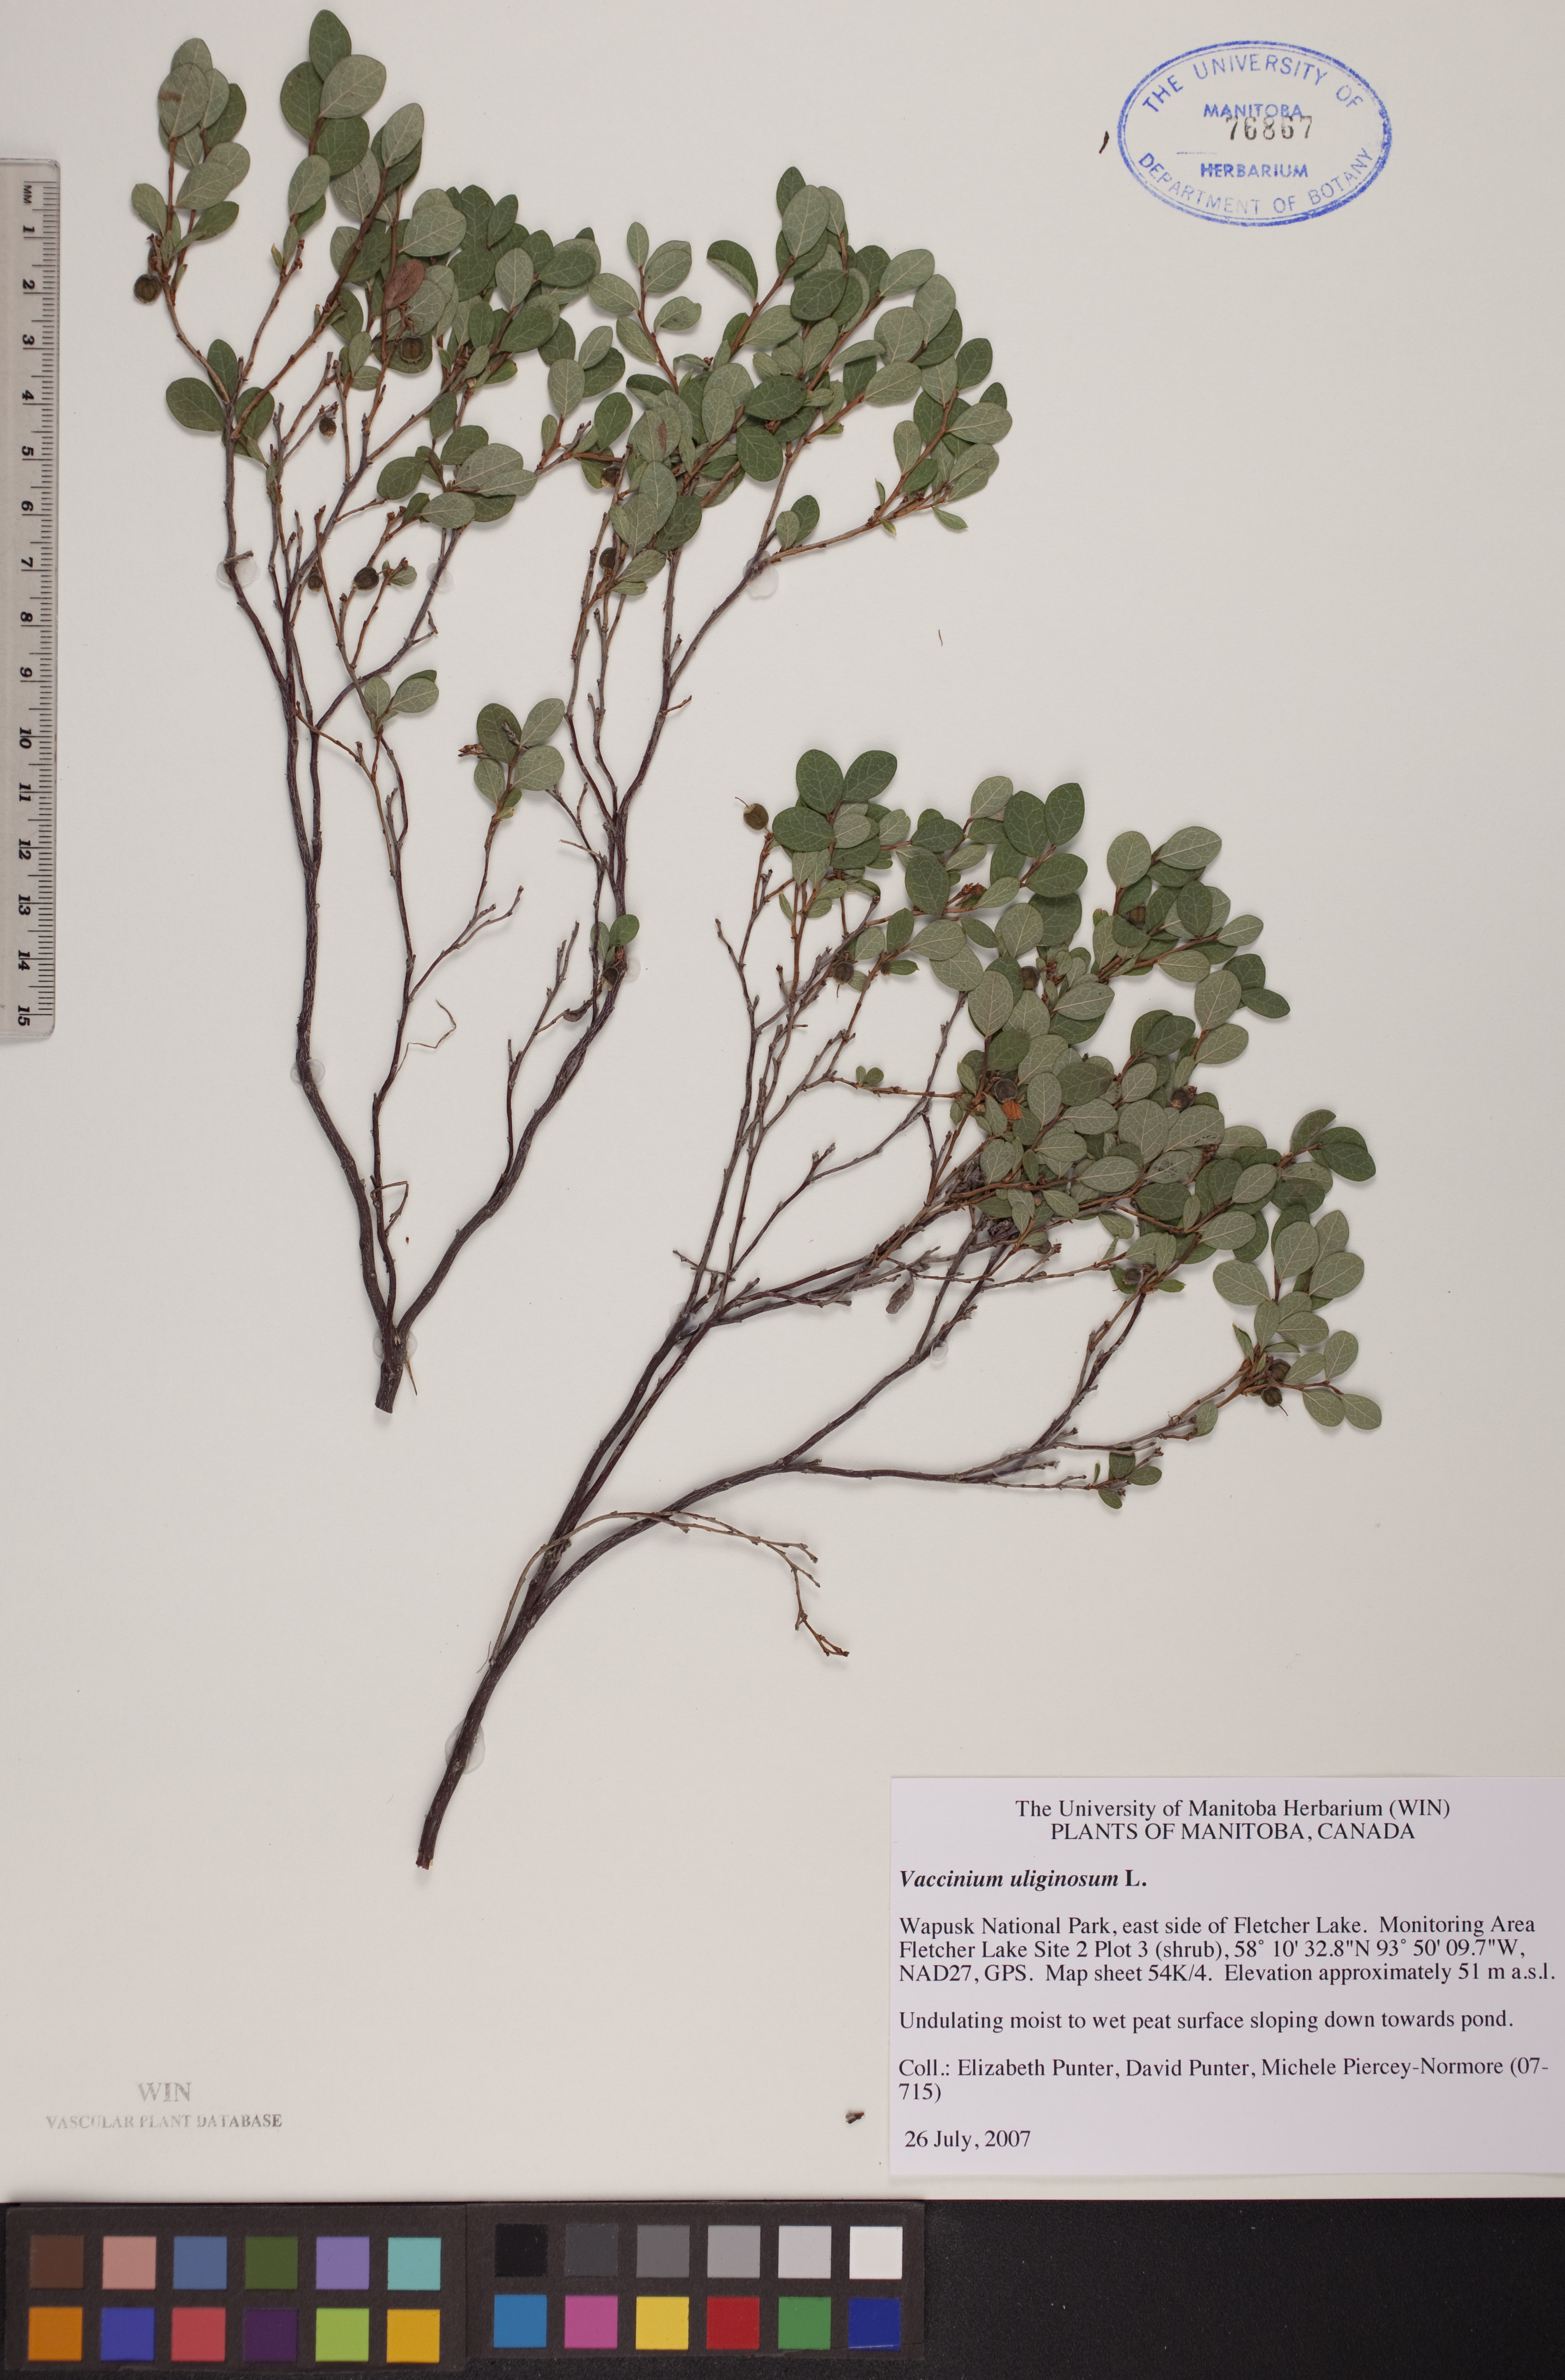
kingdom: Plantae
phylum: Tracheophyta
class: Magnoliopsida
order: Ericales
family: Ericaceae
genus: Vaccinium
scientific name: Vaccinium uliginosum
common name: Bog bilberry
